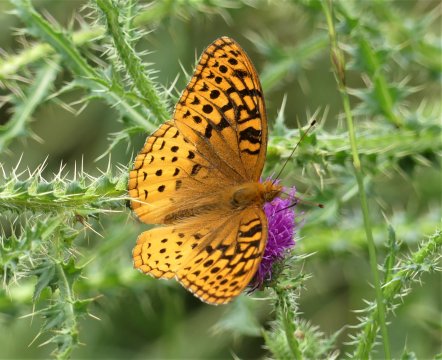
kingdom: Animalia
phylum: Arthropoda
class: Insecta
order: Lepidoptera
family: Nymphalidae
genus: Speyeria
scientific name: Speyeria cybele
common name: Great Spangled Fritillary
